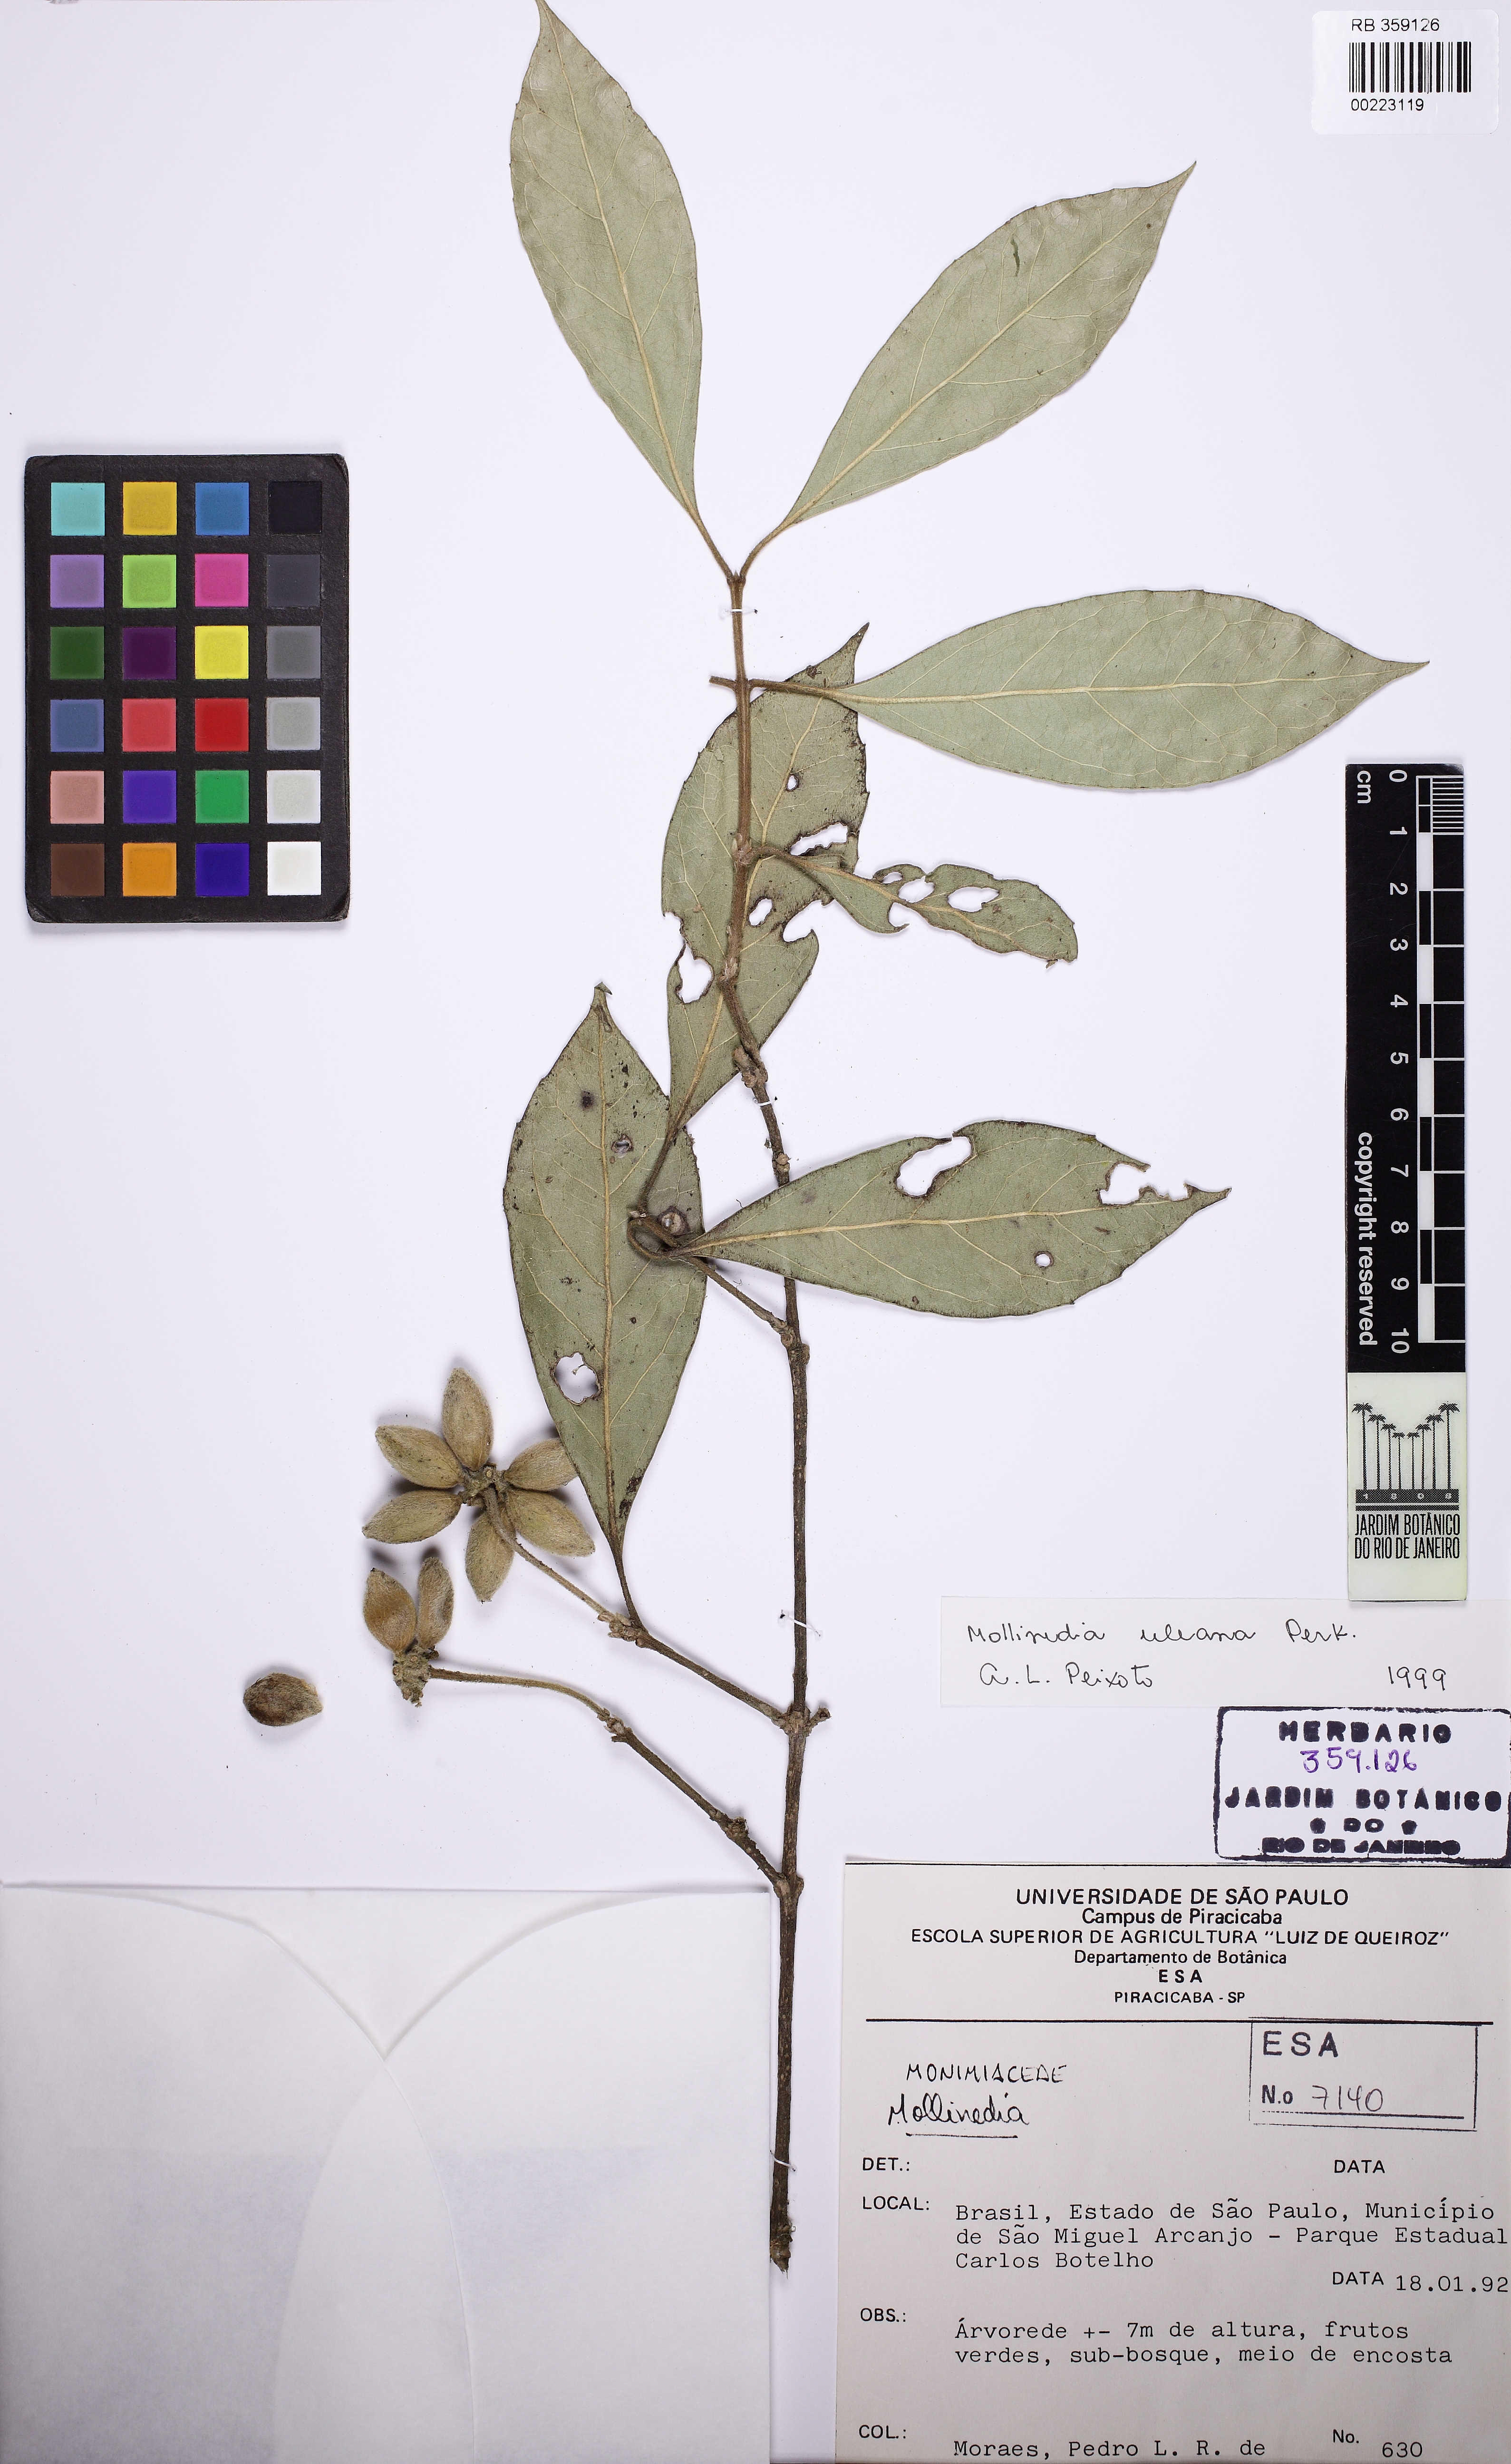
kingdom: Plantae
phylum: Tracheophyta
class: Magnoliopsida
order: Laurales
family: Monimiaceae
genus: Mollinedia
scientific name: Mollinedia uleana
